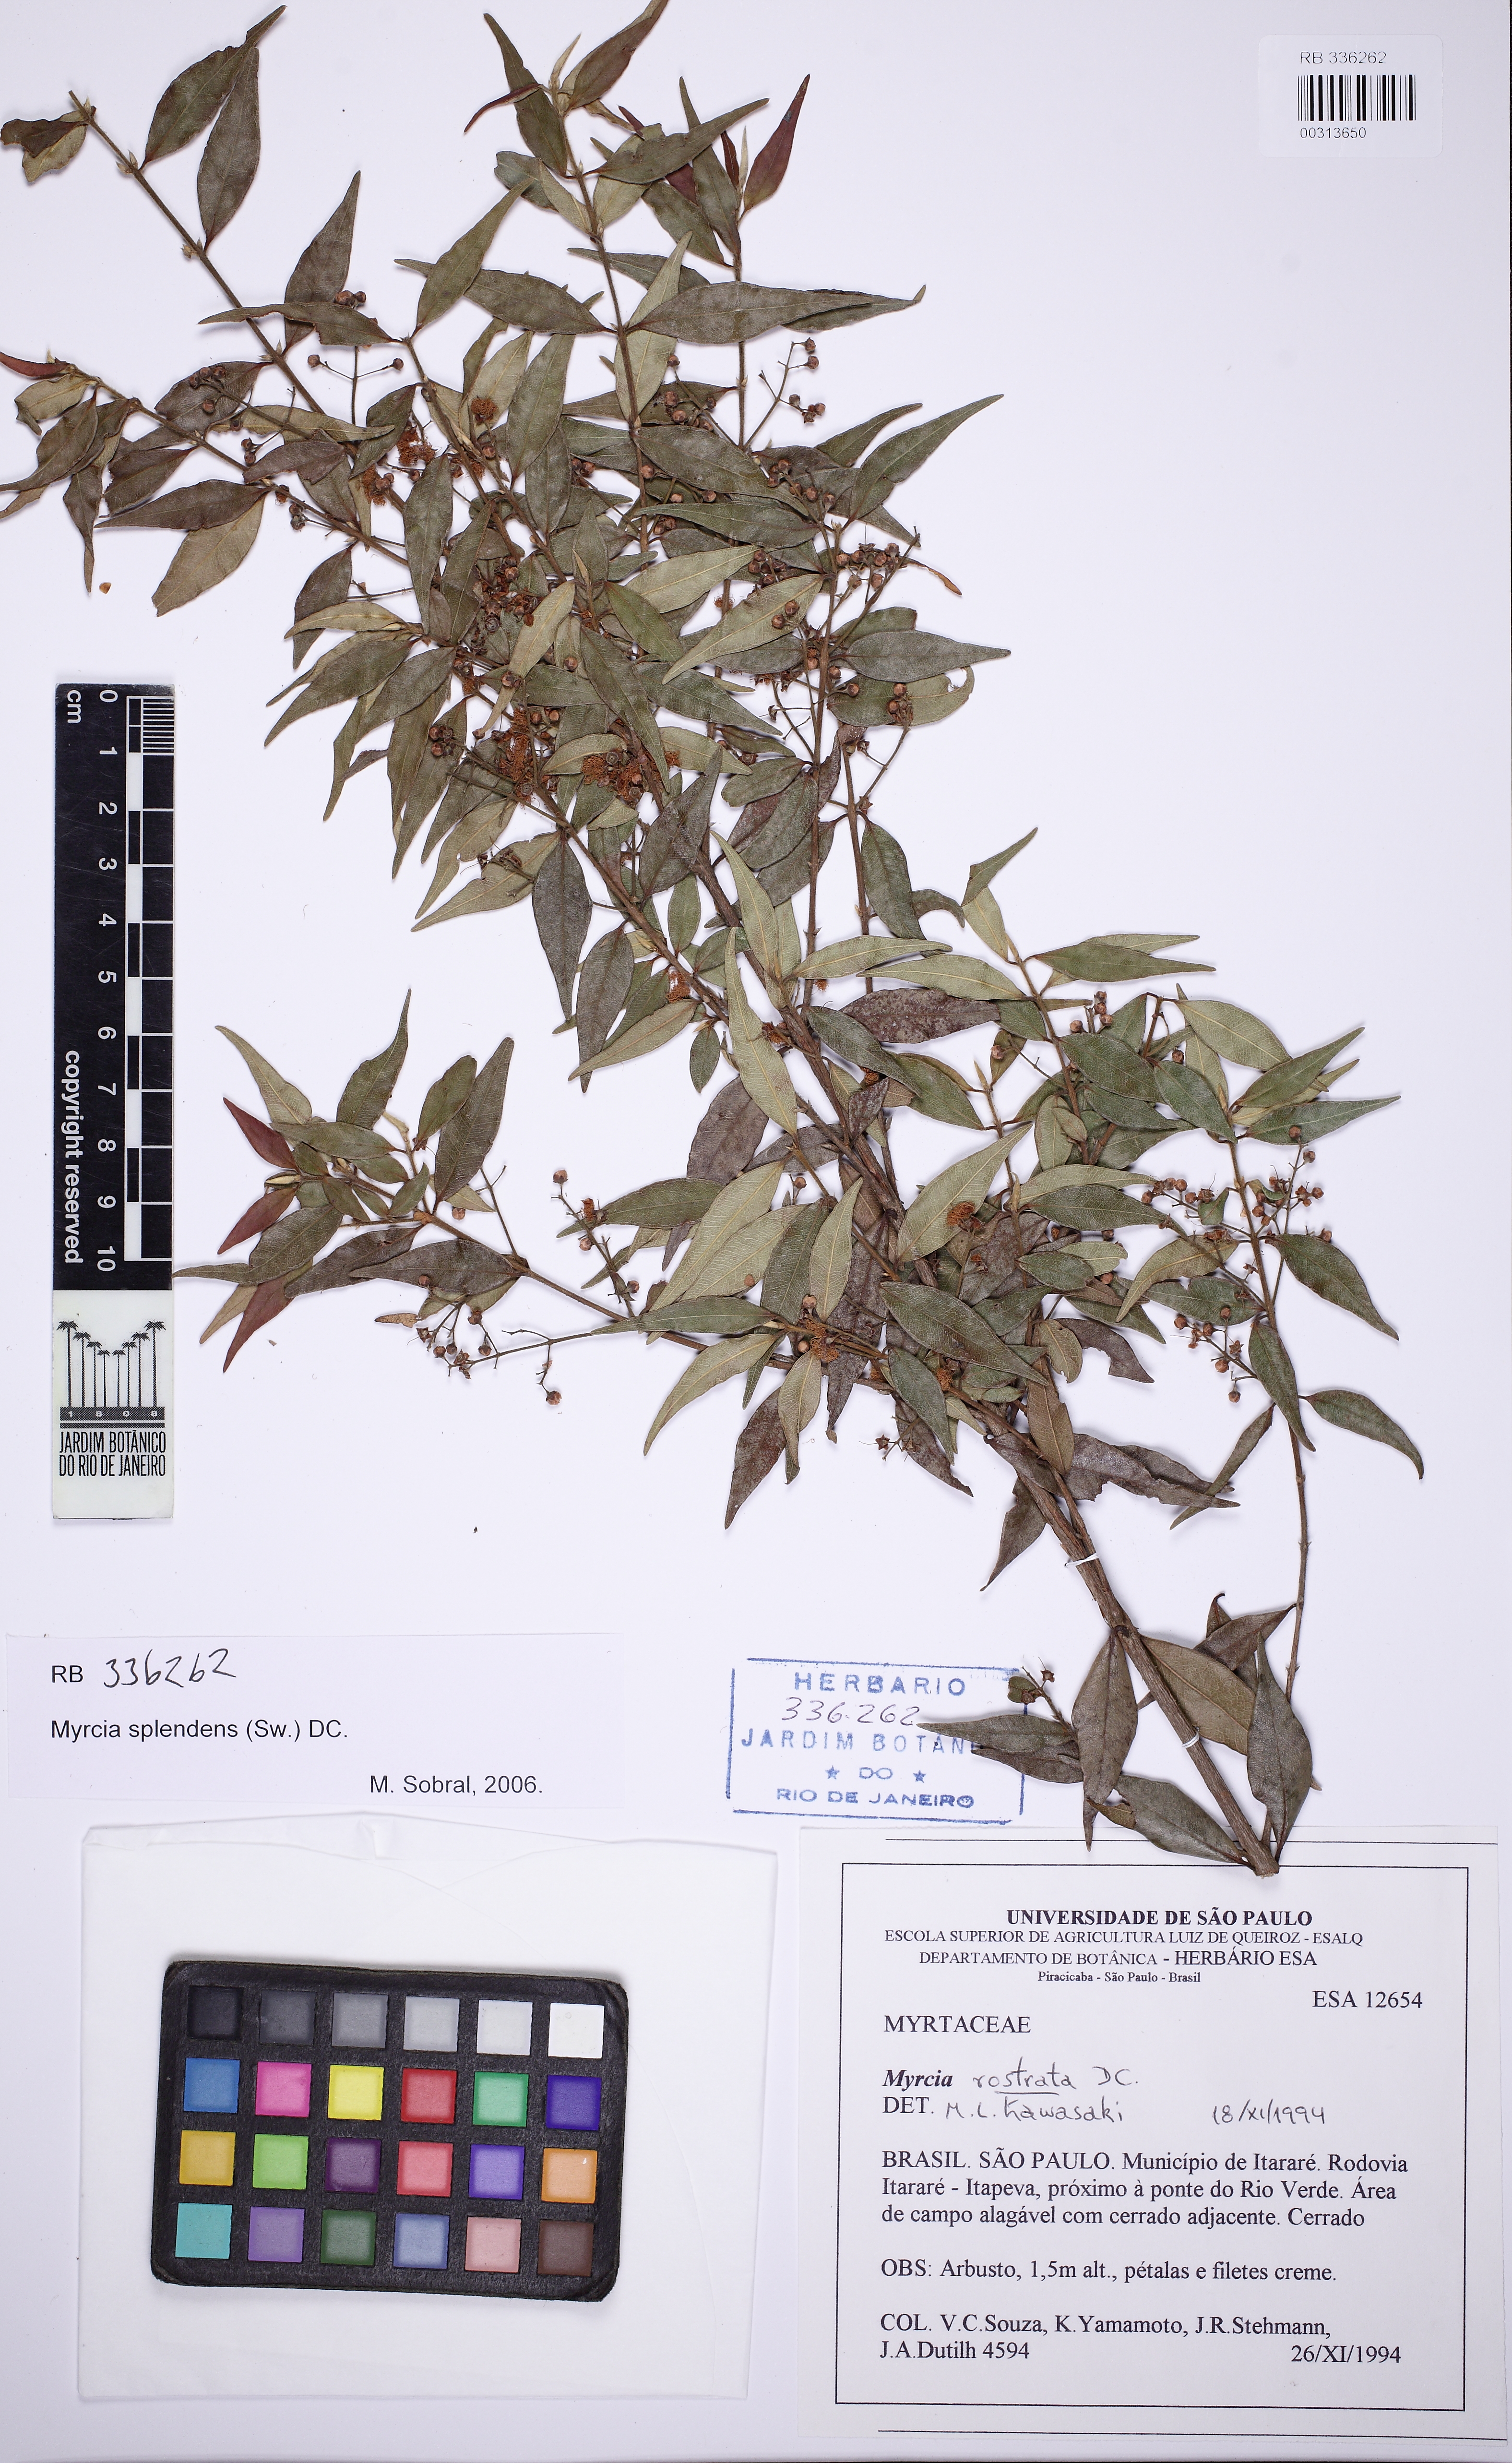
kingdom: Plantae
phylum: Tracheophyta
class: Magnoliopsida
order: Myrtales
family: Myrtaceae
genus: Myrcia
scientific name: Myrcia splendens
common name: Surinam cherry
